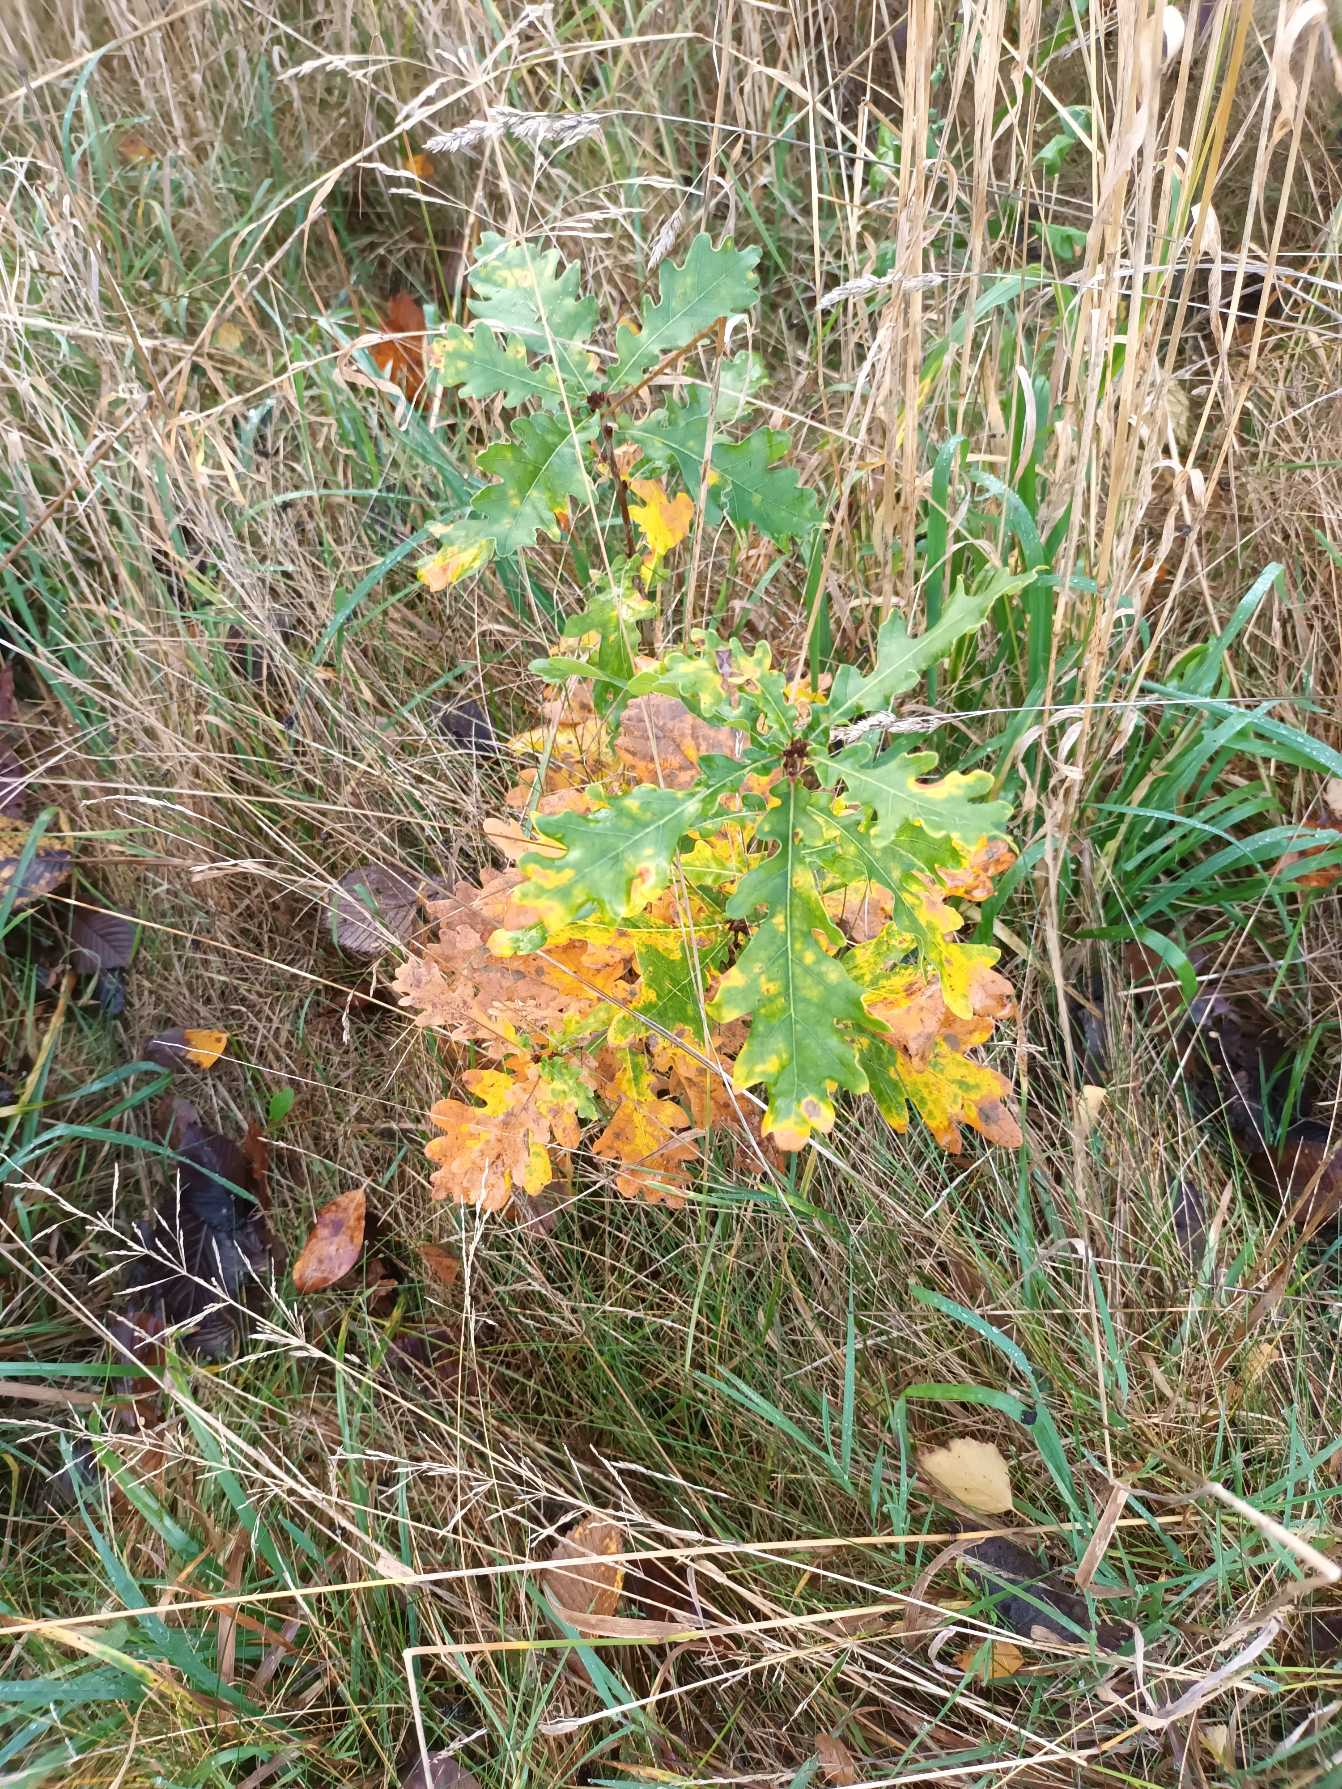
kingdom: Plantae
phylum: Tracheophyta
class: Magnoliopsida
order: Fagales
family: Fagaceae
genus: Quercus
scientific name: Quercus robur
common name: Stilk-eg/almindelig eg
